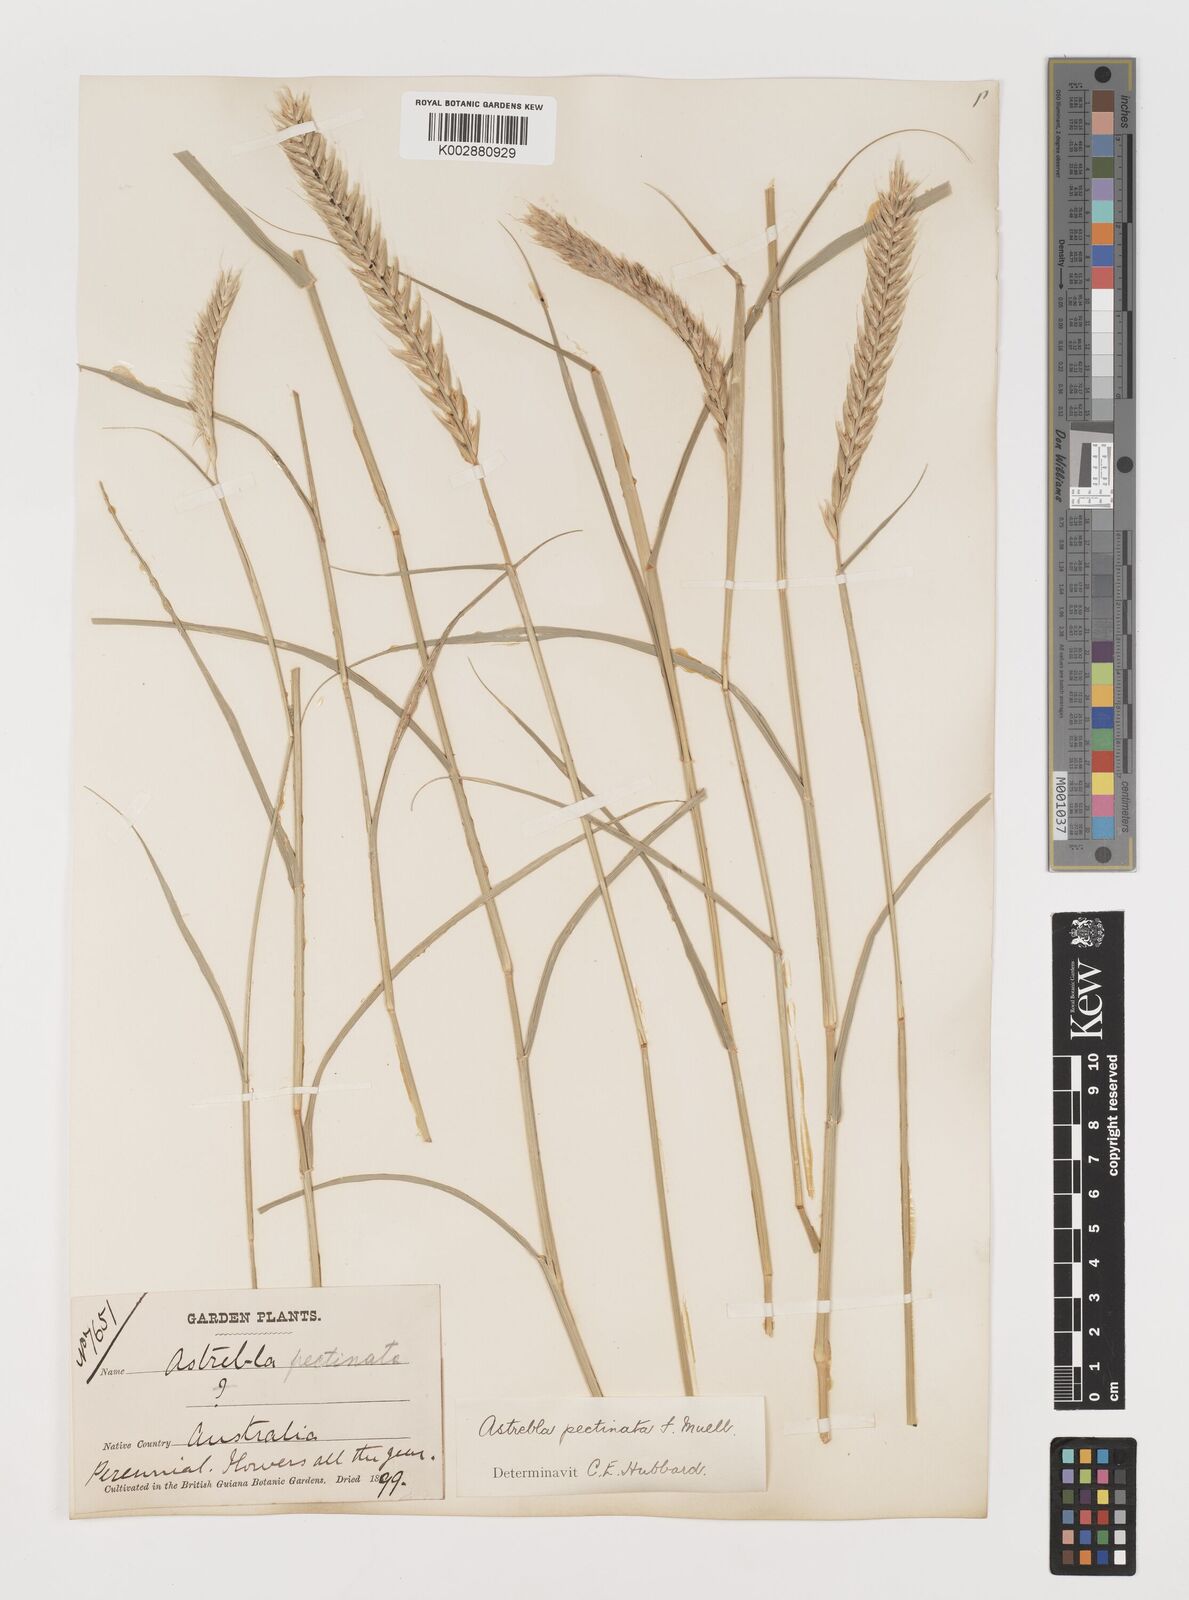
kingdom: Plantae
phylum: Tracheophyta
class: Liliopsida
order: Poales
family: Poaceae
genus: Astrebla
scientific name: Astrebla pectinata
